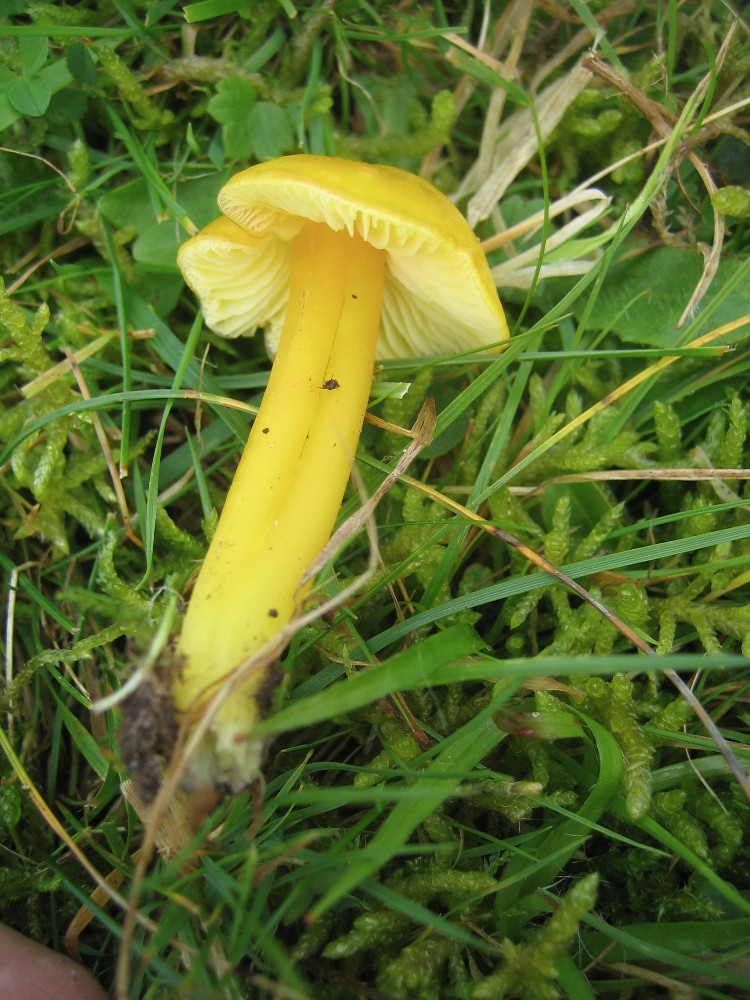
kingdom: Fungi
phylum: Basidiomycota
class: Agaricomycetes
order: Agaricales
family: Hygrophoraceae
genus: Hygrocybe
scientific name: Hygrocybe chlorophana
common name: gul vokshat
